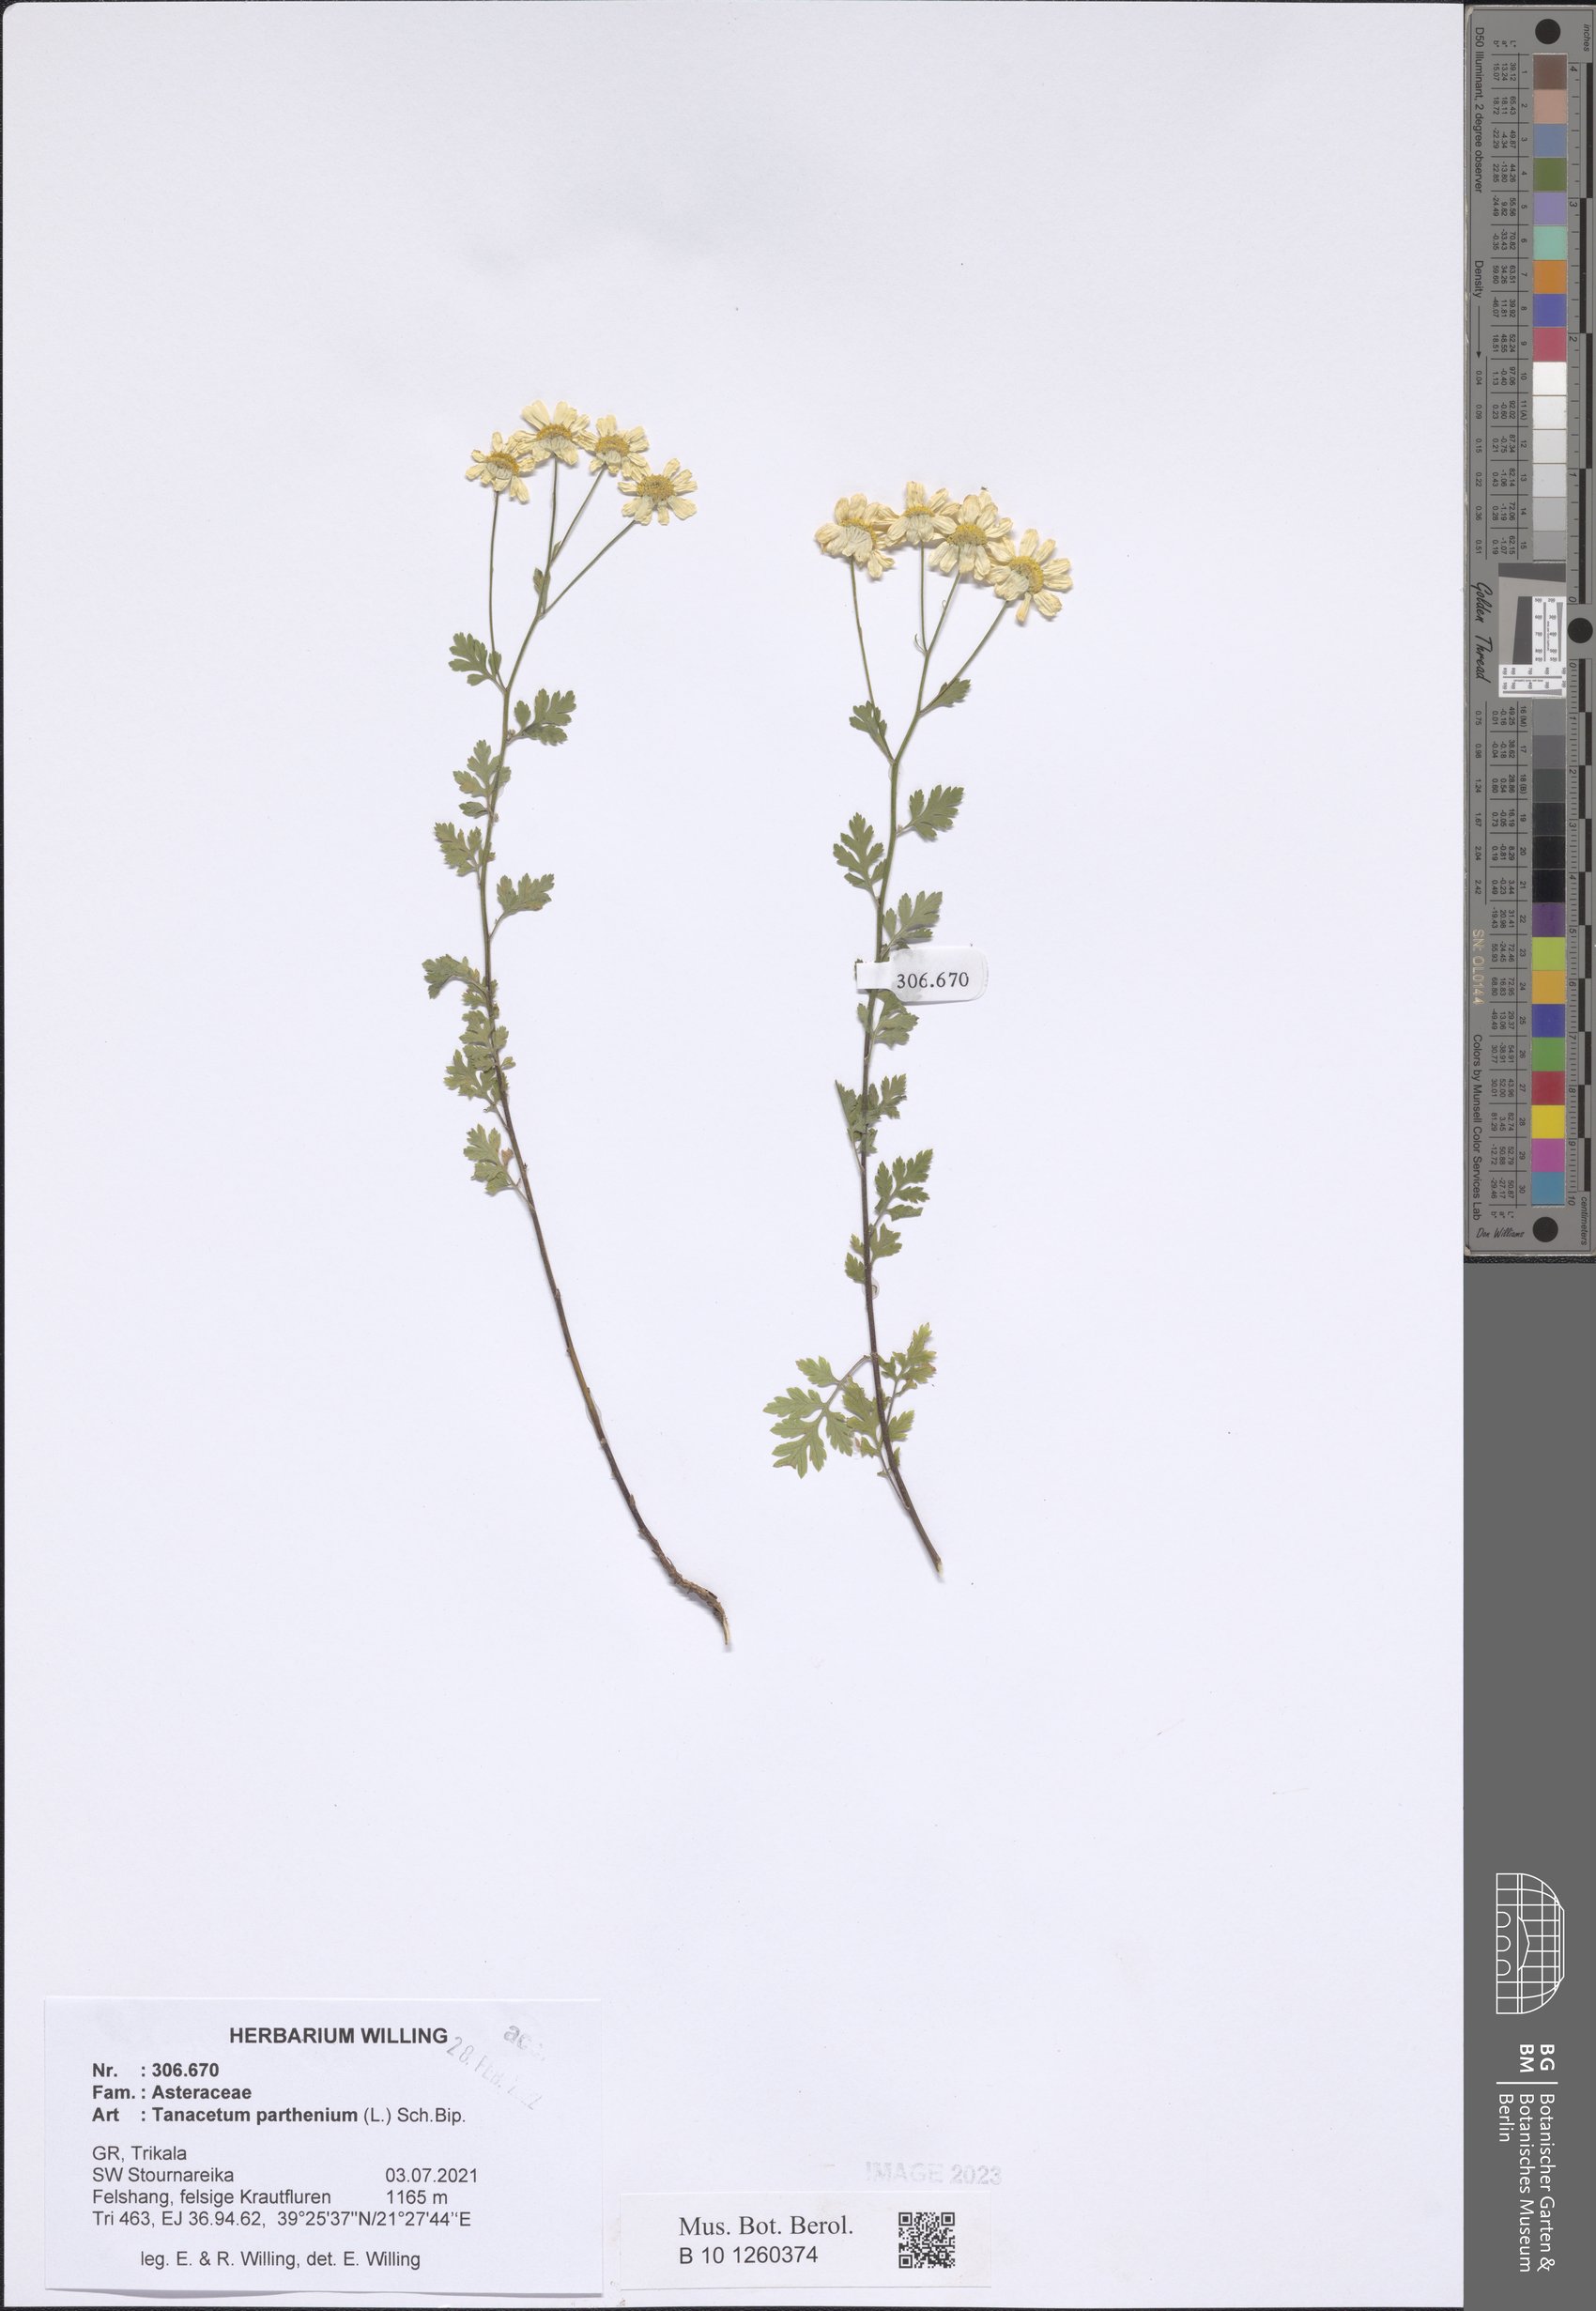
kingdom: Plantae
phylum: Tracheophyta
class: Magnoliopsida
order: Asterales
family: Asteraceae
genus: Tanacetum
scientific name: Tanacetum parthenium
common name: Feverfew
